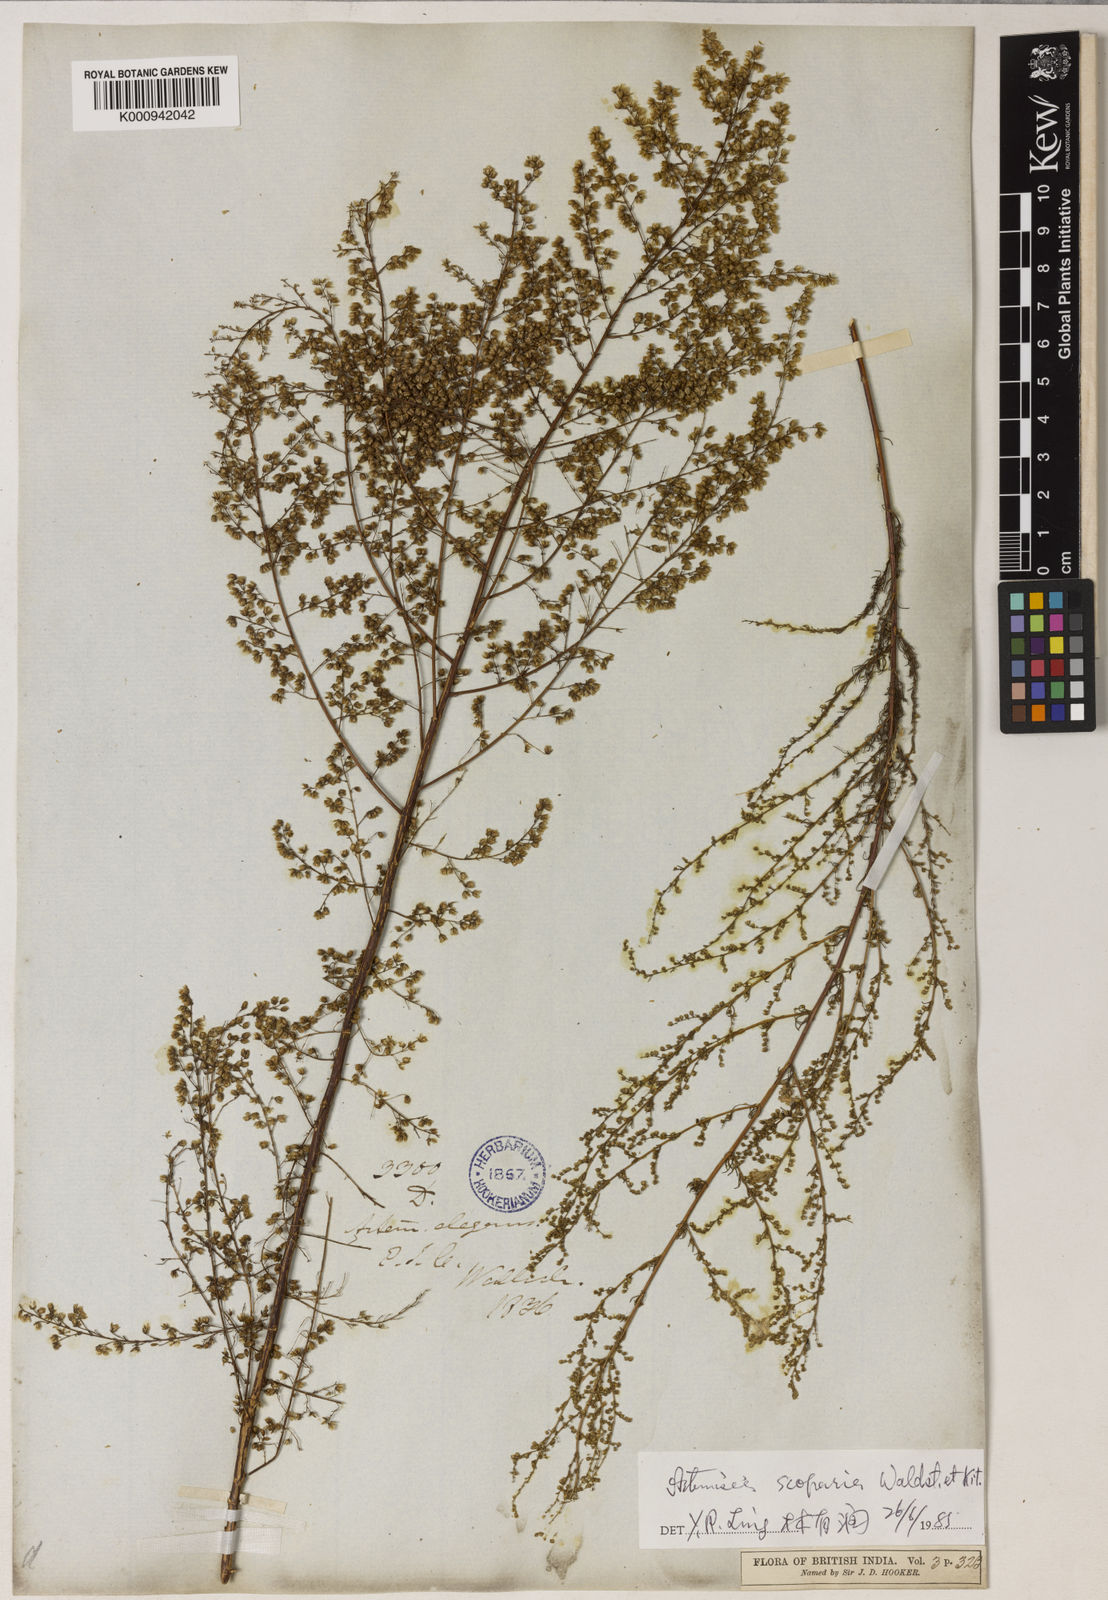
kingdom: Plantae
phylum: Tracheophyta
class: Magnoliopsida
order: Asterales
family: Asteraceae
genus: Artemisia
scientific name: Artemisia scoparia
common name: Redstem wormwood
